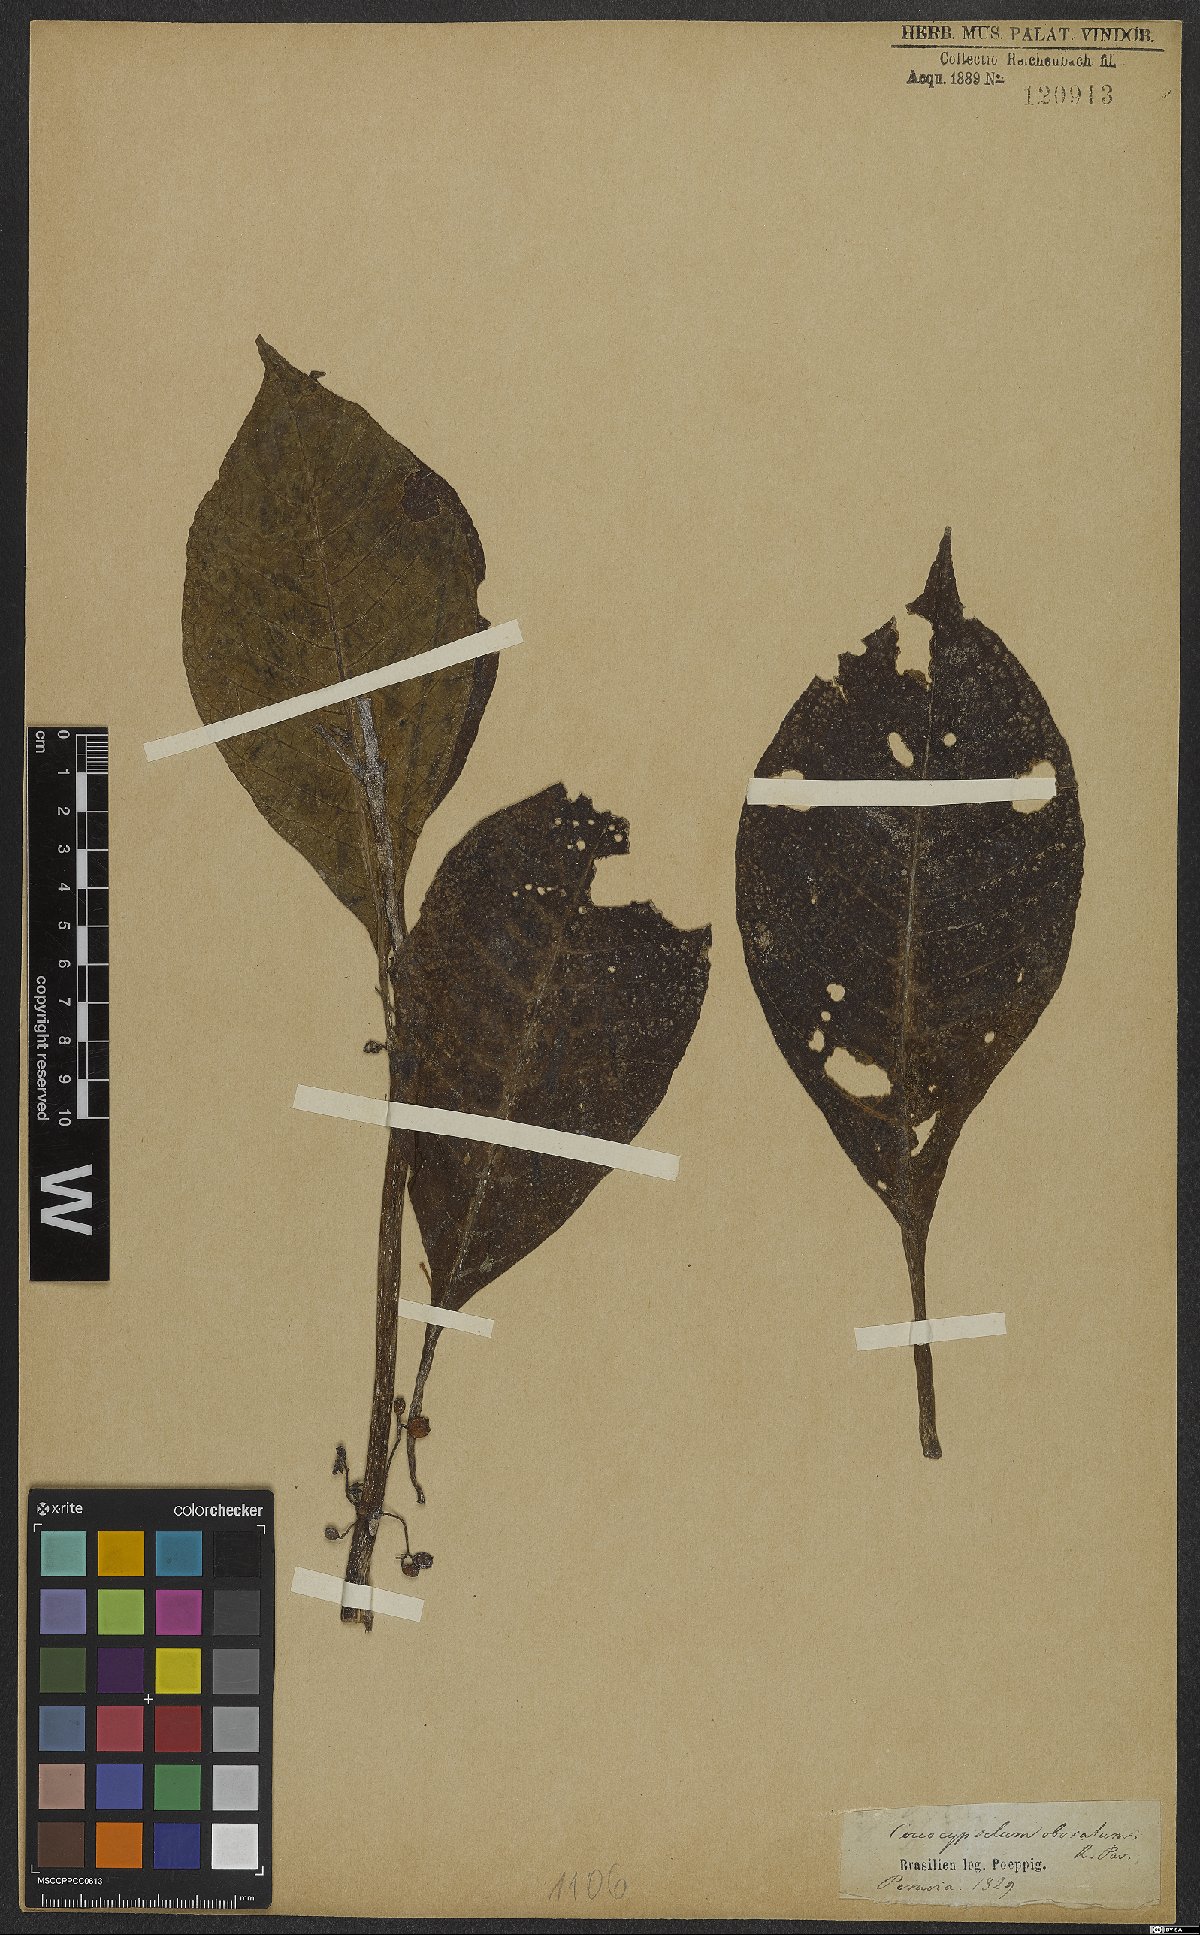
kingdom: Plantae
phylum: Tracheophyta
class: Magnoliopsida
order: Gentianales
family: Rubiaceae
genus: Coccocypselum
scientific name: Coccocypselum Condalia obovata
